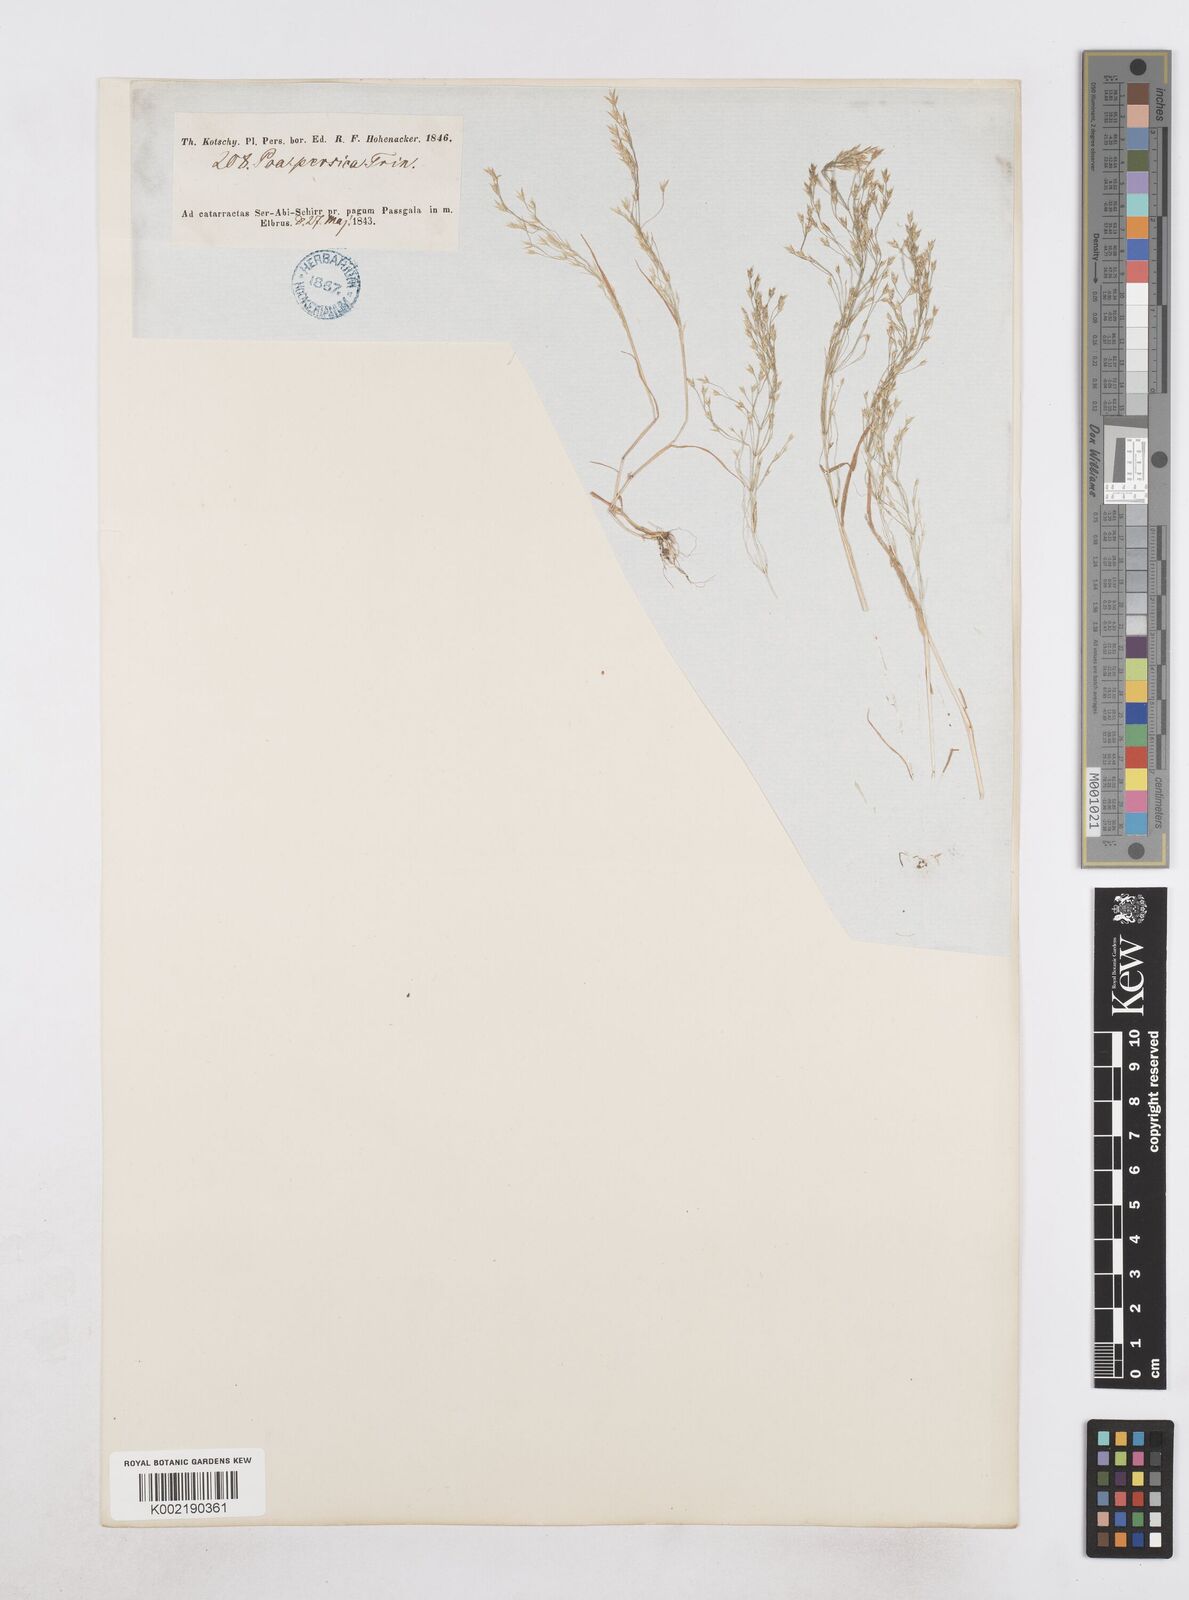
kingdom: Plantae
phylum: Tracheophyta
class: Liliopsida
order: Poales
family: Poaceae
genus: Poa
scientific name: Poa persica
